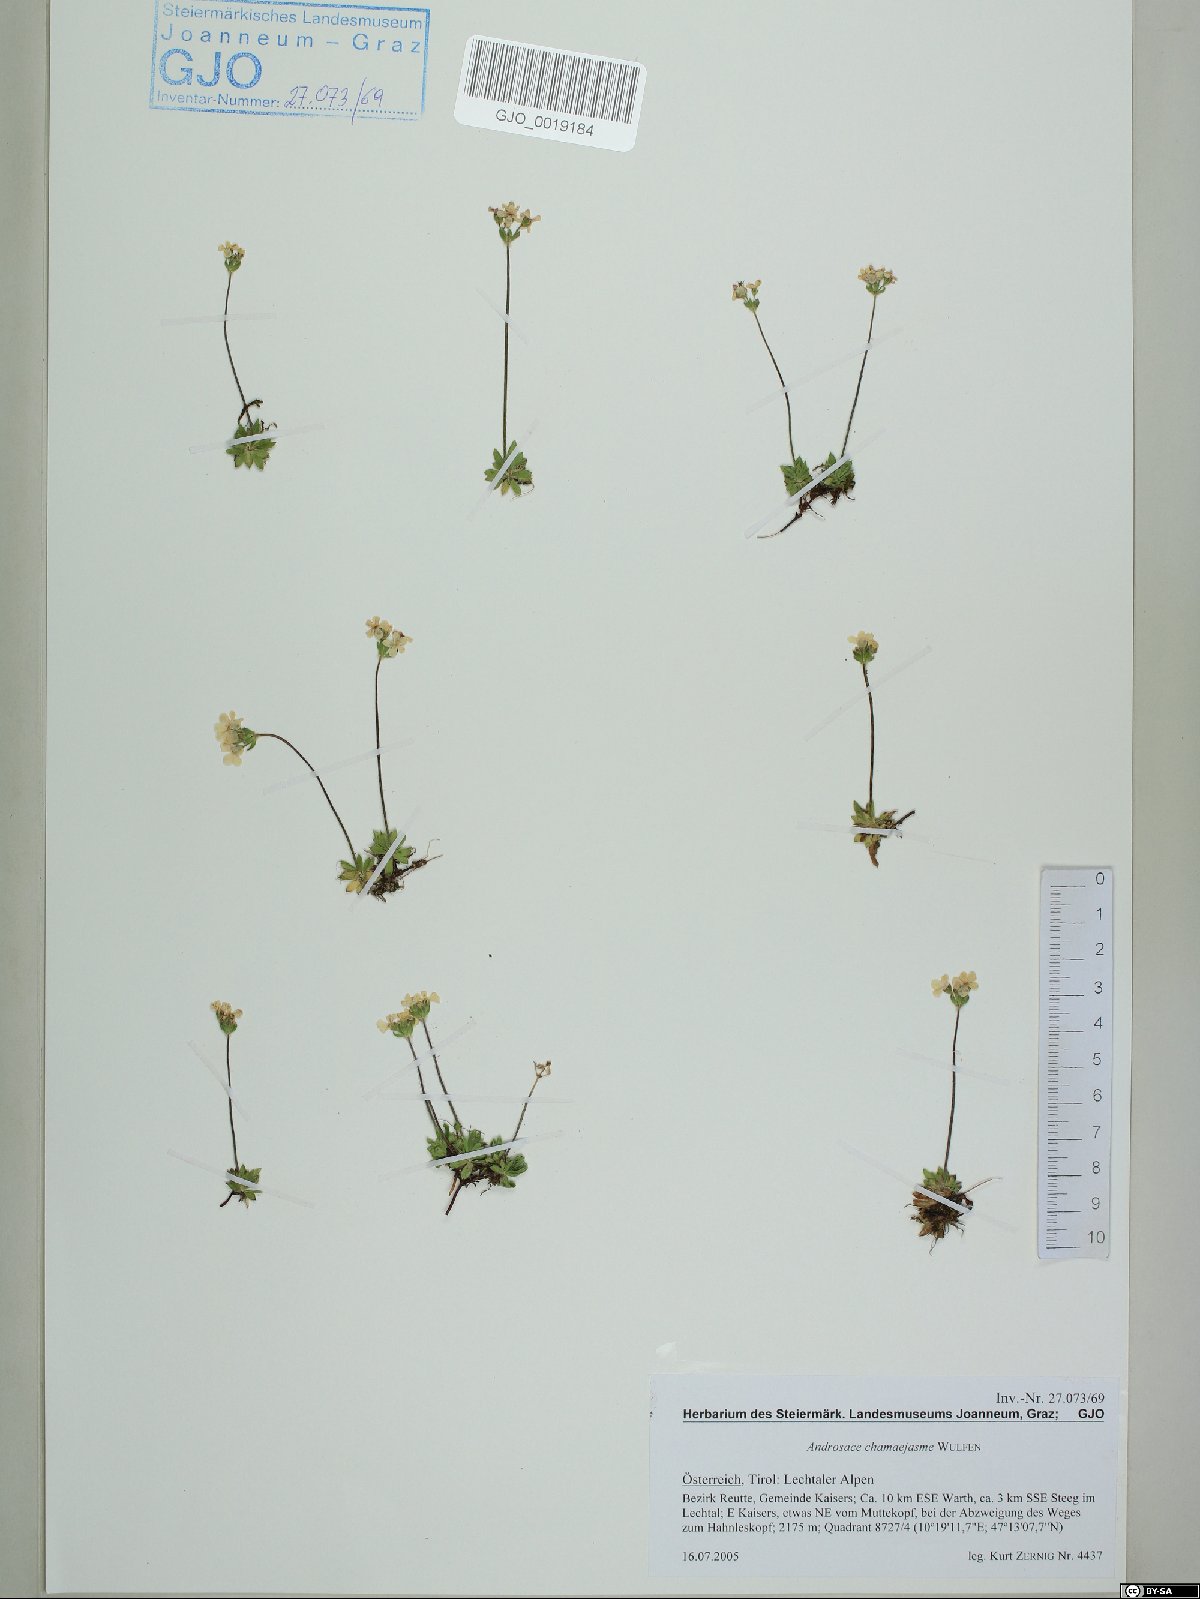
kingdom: Plantae
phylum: Tracheophyta
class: Magnoliopsida
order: Ericales
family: Primulaceae
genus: Androsace
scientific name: Androsace chamaejasme
